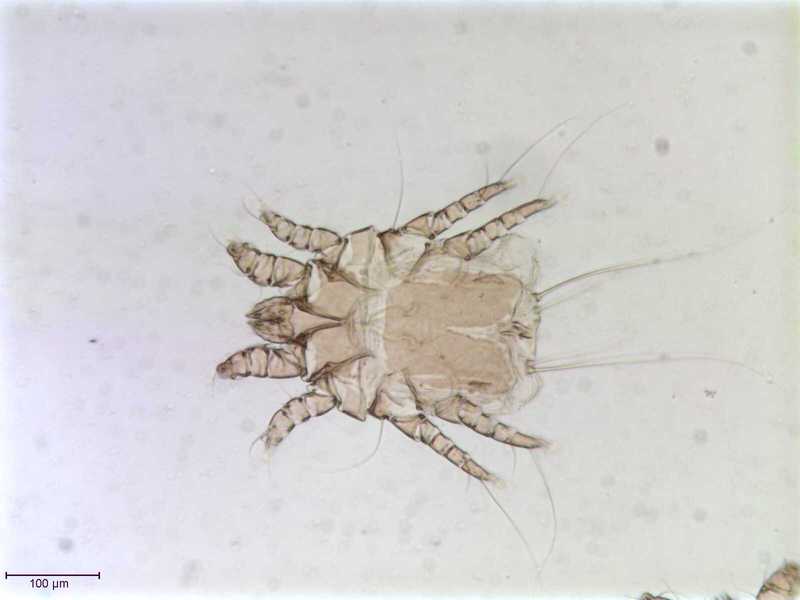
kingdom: Animalia
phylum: Arthropoda
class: Arachnida
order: Sarcoptiformes
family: Epidermoptidae
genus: Promyialges
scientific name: Promyialges uncus
